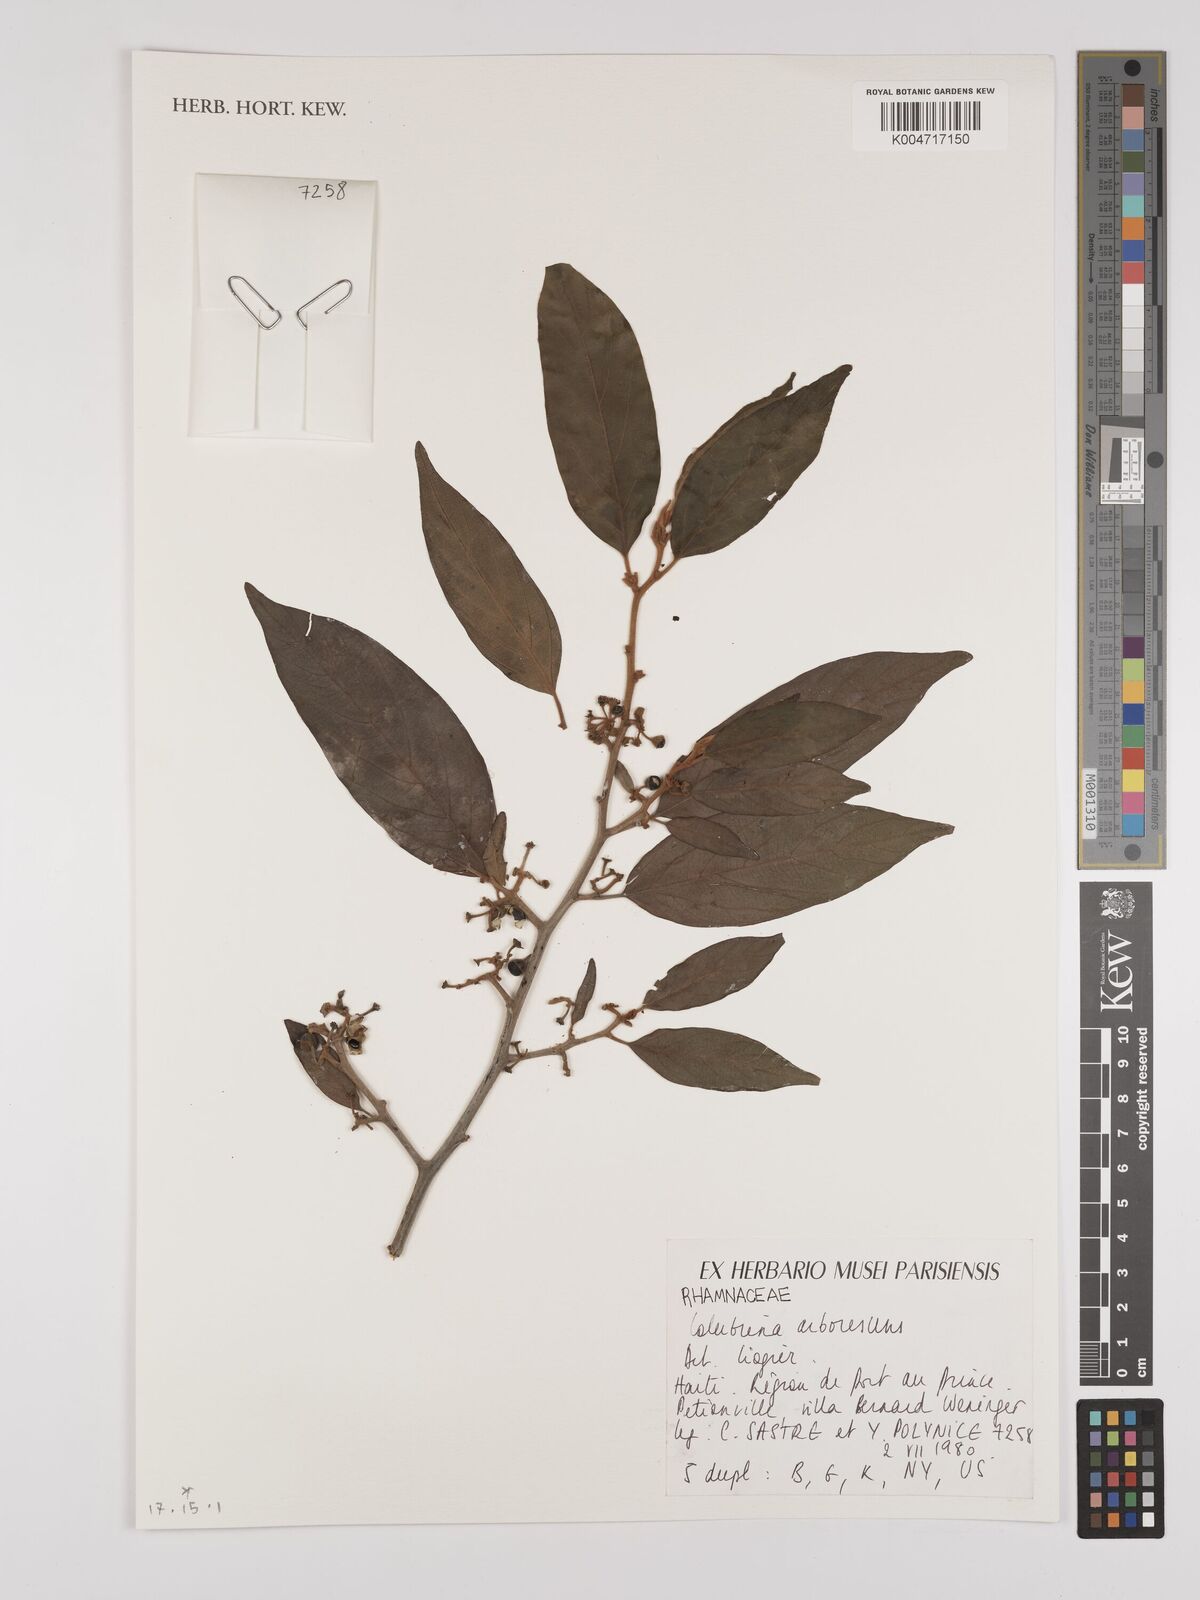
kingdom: Plantae
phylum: Tracheophyta
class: Magnoliopsida
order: Rosales
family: Rhamnaceae
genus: Colubrina
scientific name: Colubrina arborescens
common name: Wild coffee
